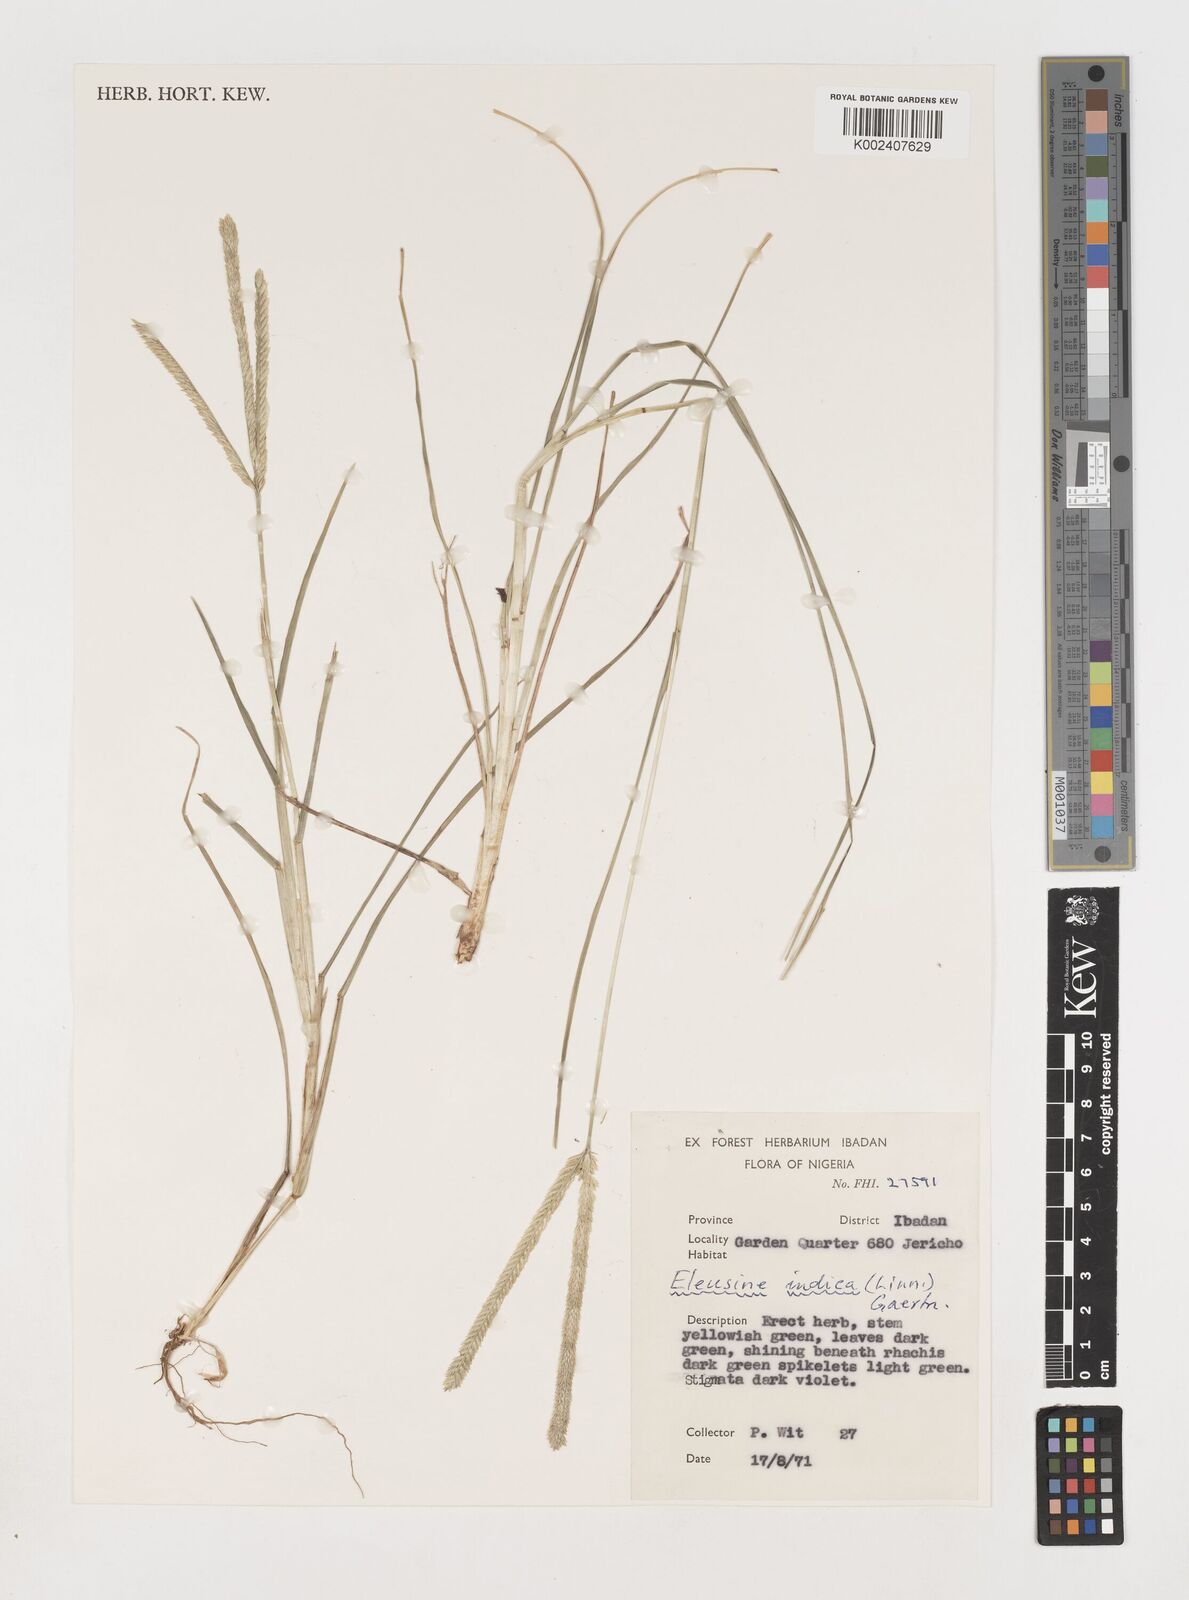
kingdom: Plantae
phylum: Tracheophyta
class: Liliopsida
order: Poales
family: Poaceae
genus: Eleusine
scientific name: Eleusine indica
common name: Yard-grass
